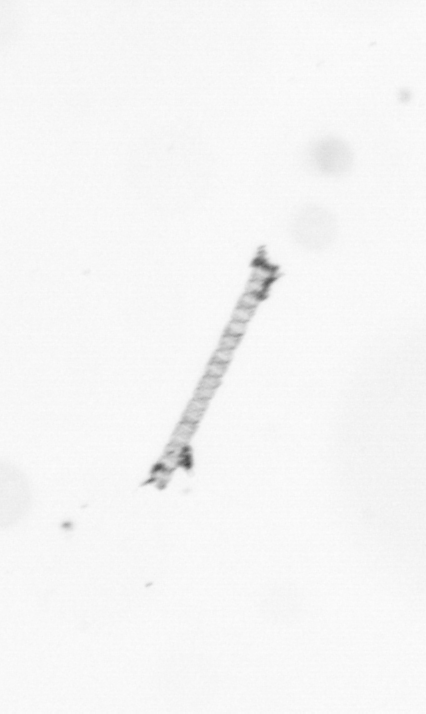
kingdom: Chromista
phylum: Ochrophyta
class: Bacillariophyceae
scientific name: Bacillariophyceae
